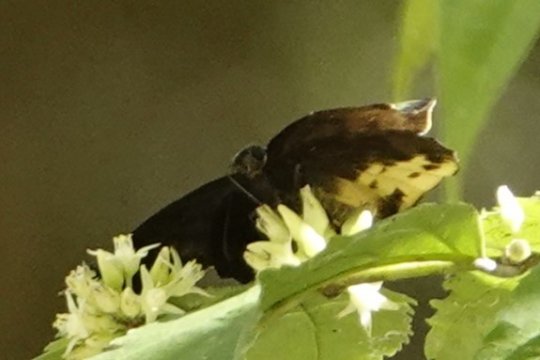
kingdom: Animalia
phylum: Arthropoda
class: Insecta
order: Lepidoptera
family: Hesperiidae
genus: Achlyodes
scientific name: Achlyodes busirus
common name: Giant Sicklewing
